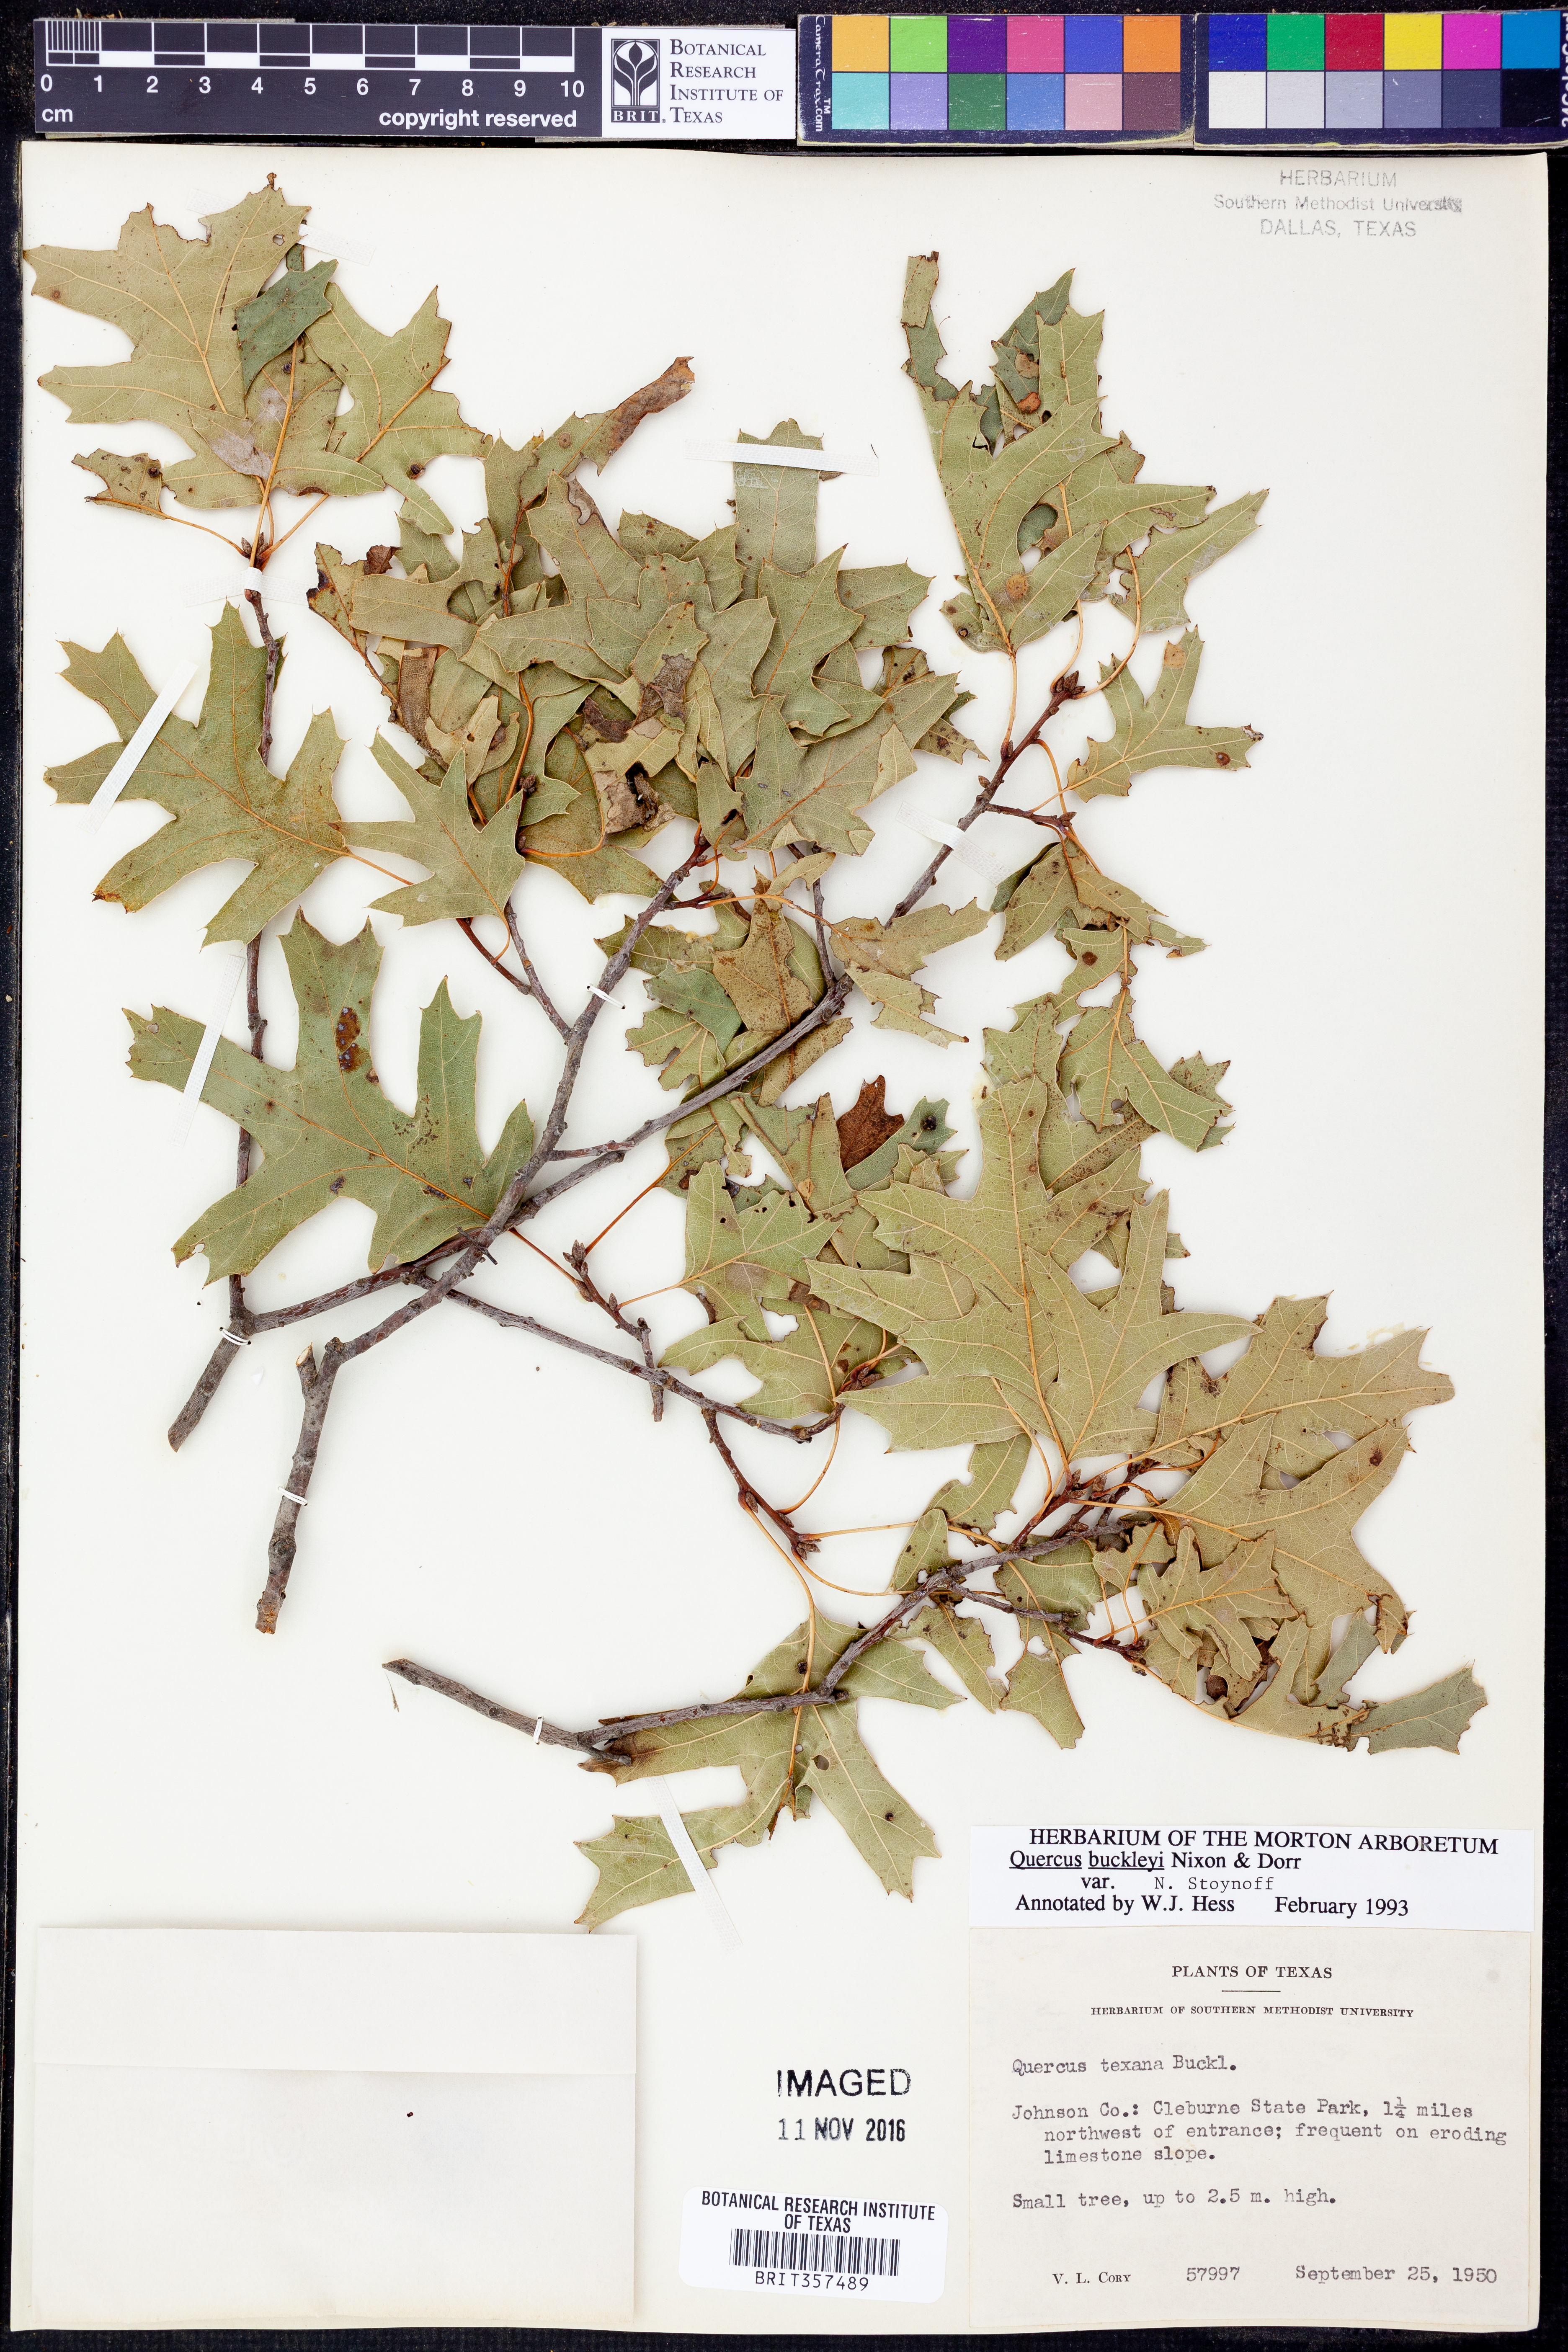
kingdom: Plantae
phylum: Tracheophyta
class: Magnoliopsida
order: Fagales
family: Fagaceae
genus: Quercus
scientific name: Quercus buckleyi
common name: Buckley oak
